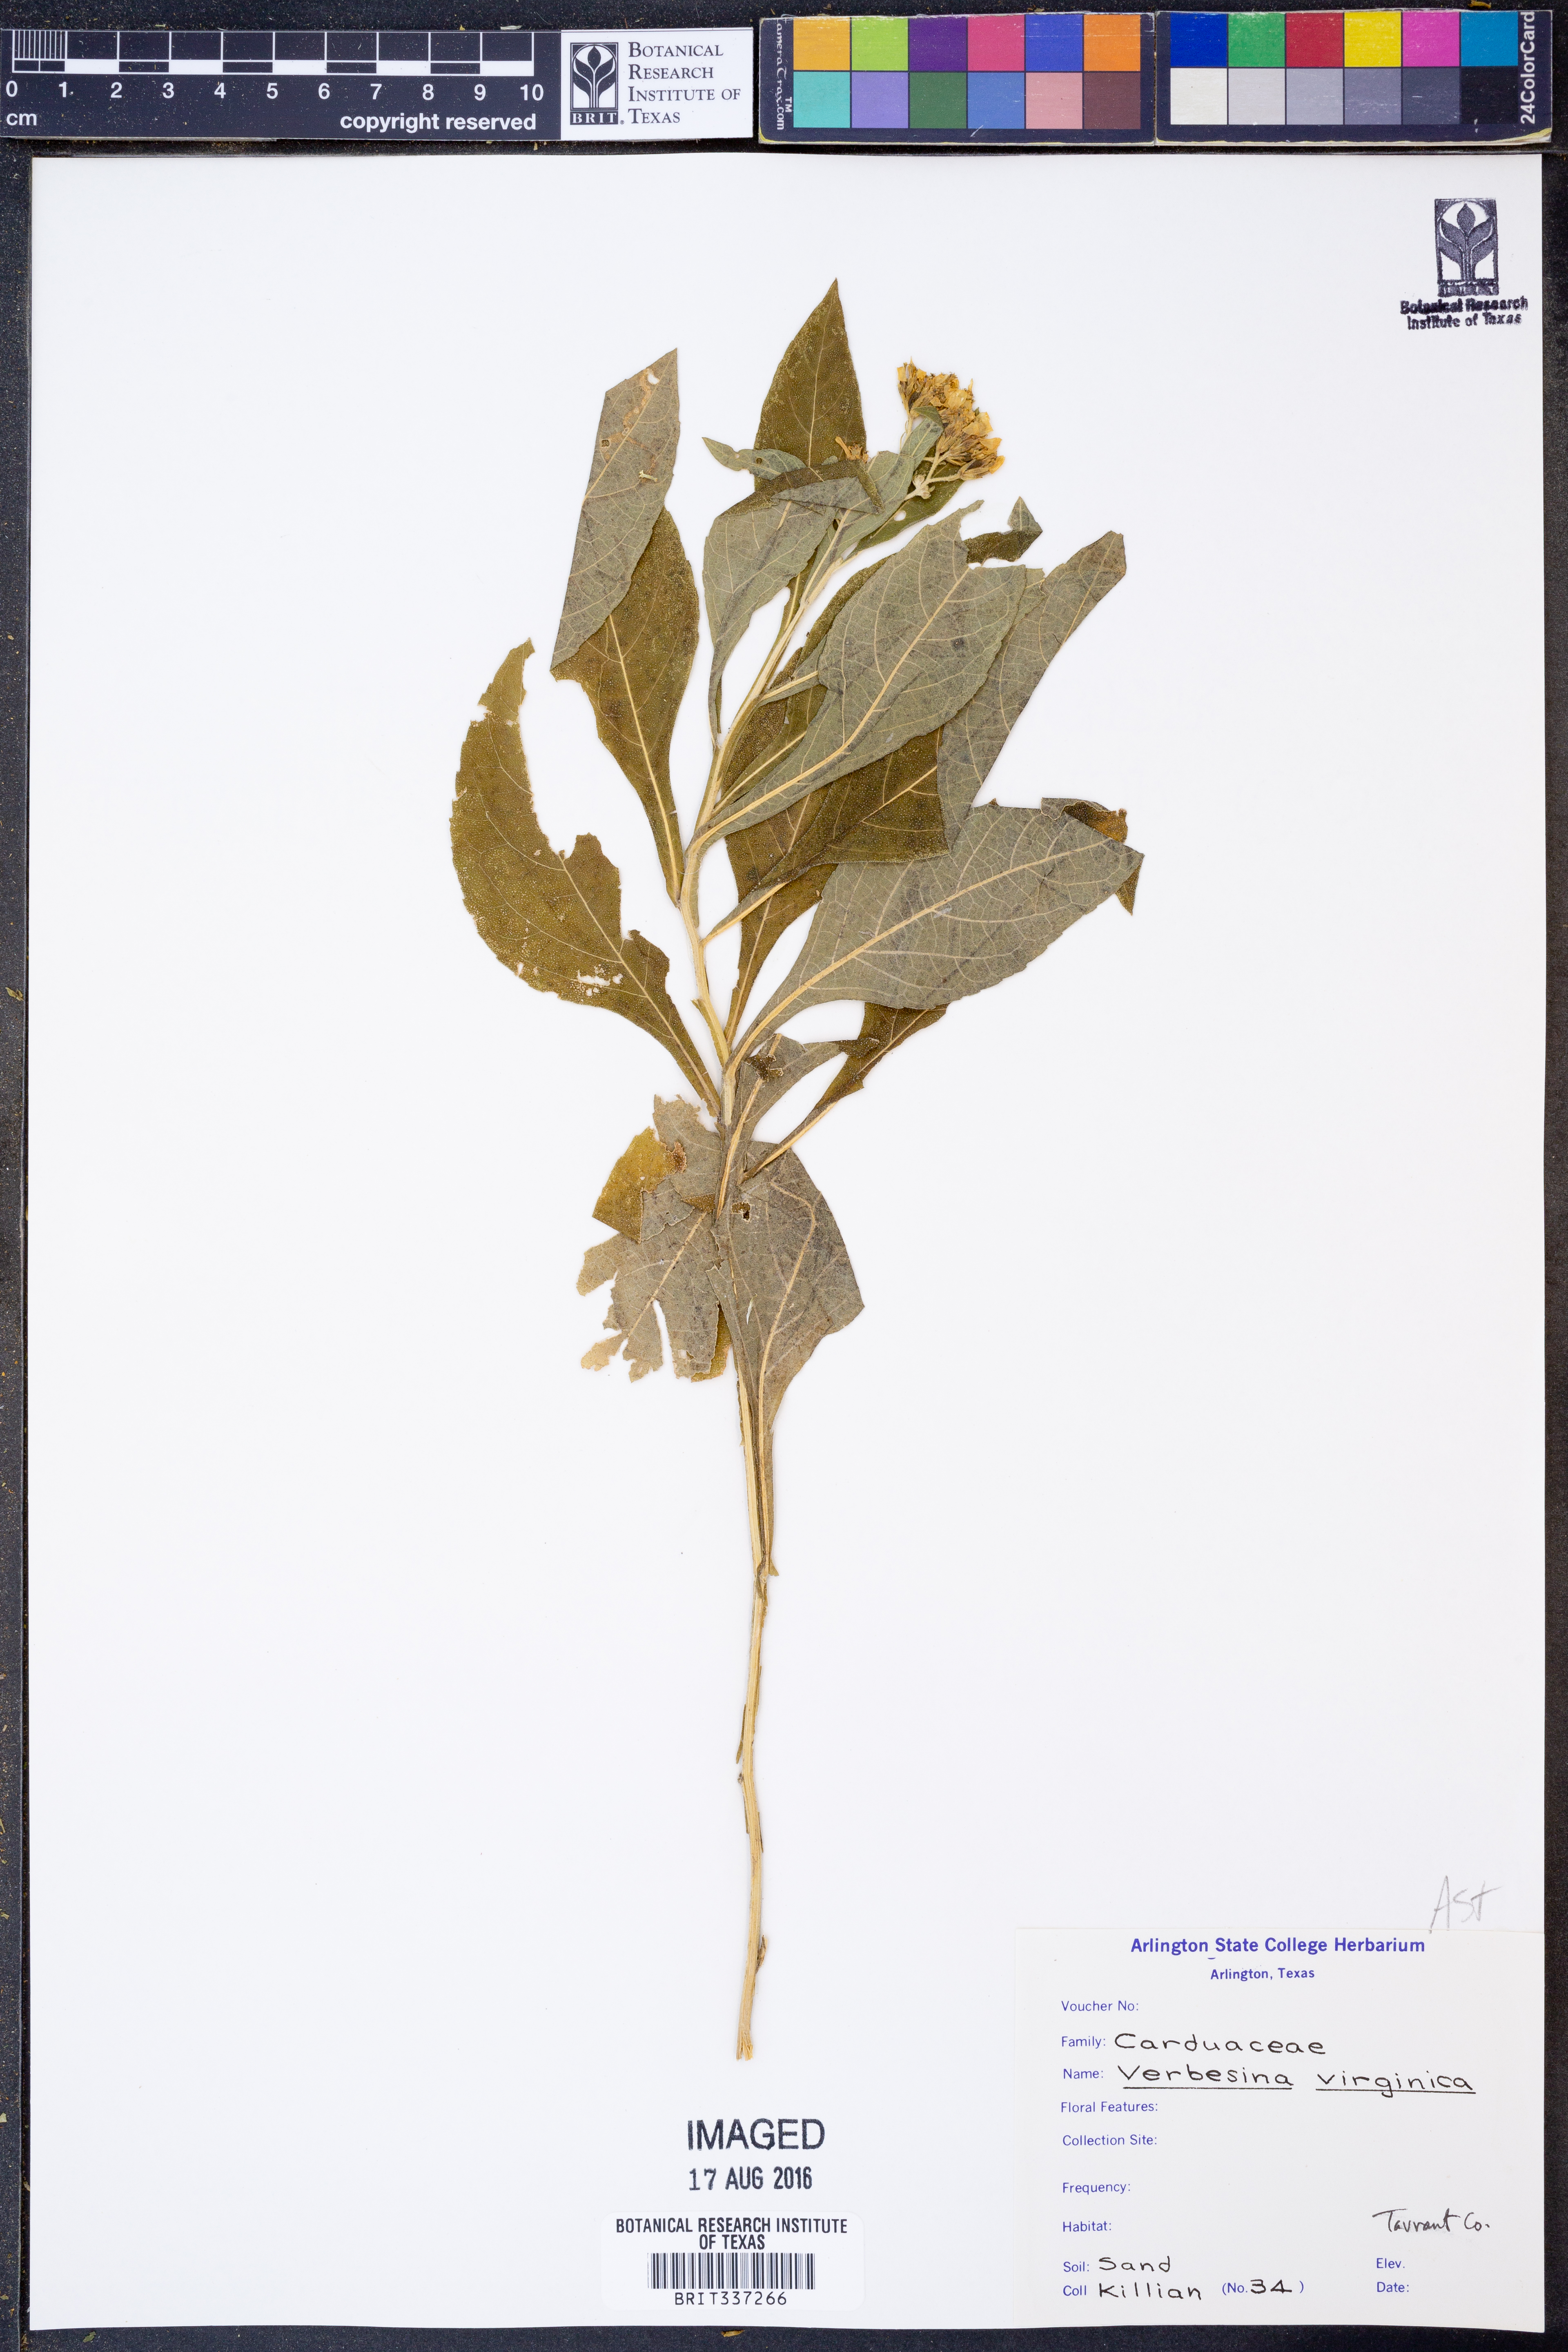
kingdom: Plantae
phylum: Tracheophyta
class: Magnoliopsida
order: Asterales
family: Asteraceae
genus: Verbesina
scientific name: Verbesina virginica
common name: Frostweed
